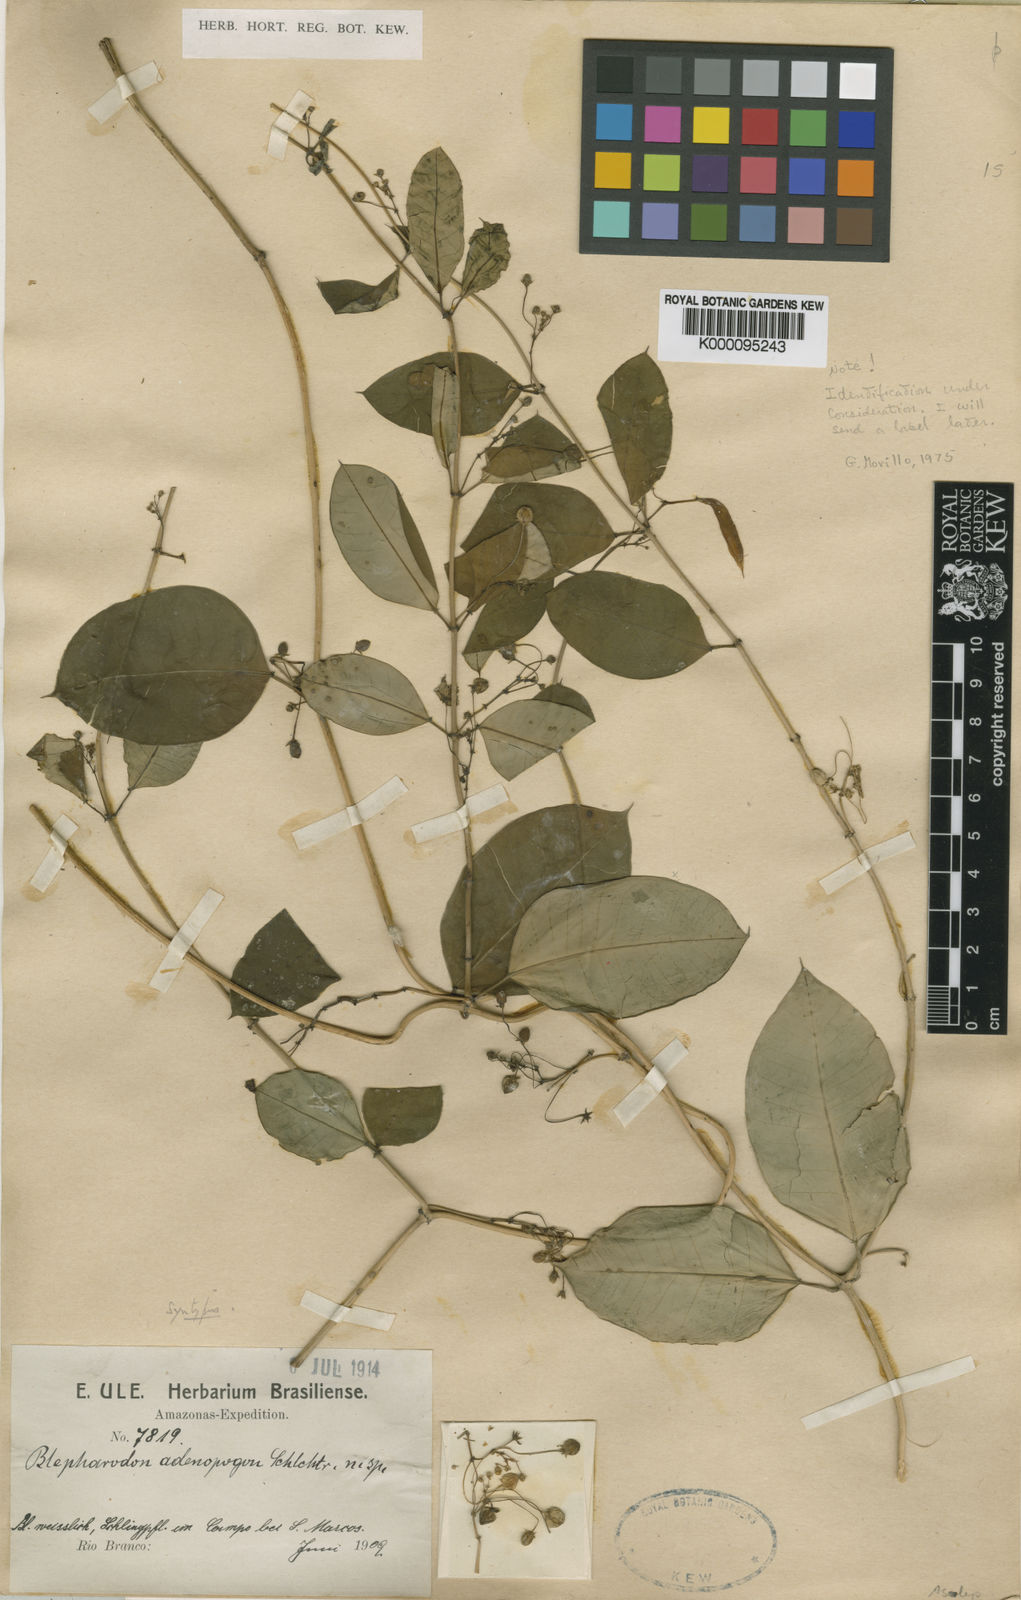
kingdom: Plantae
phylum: Tracheophyta
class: Magnoliopsida
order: Gentianales
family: Apocynaceae
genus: Blepharodon
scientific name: Blepharodon pictum
